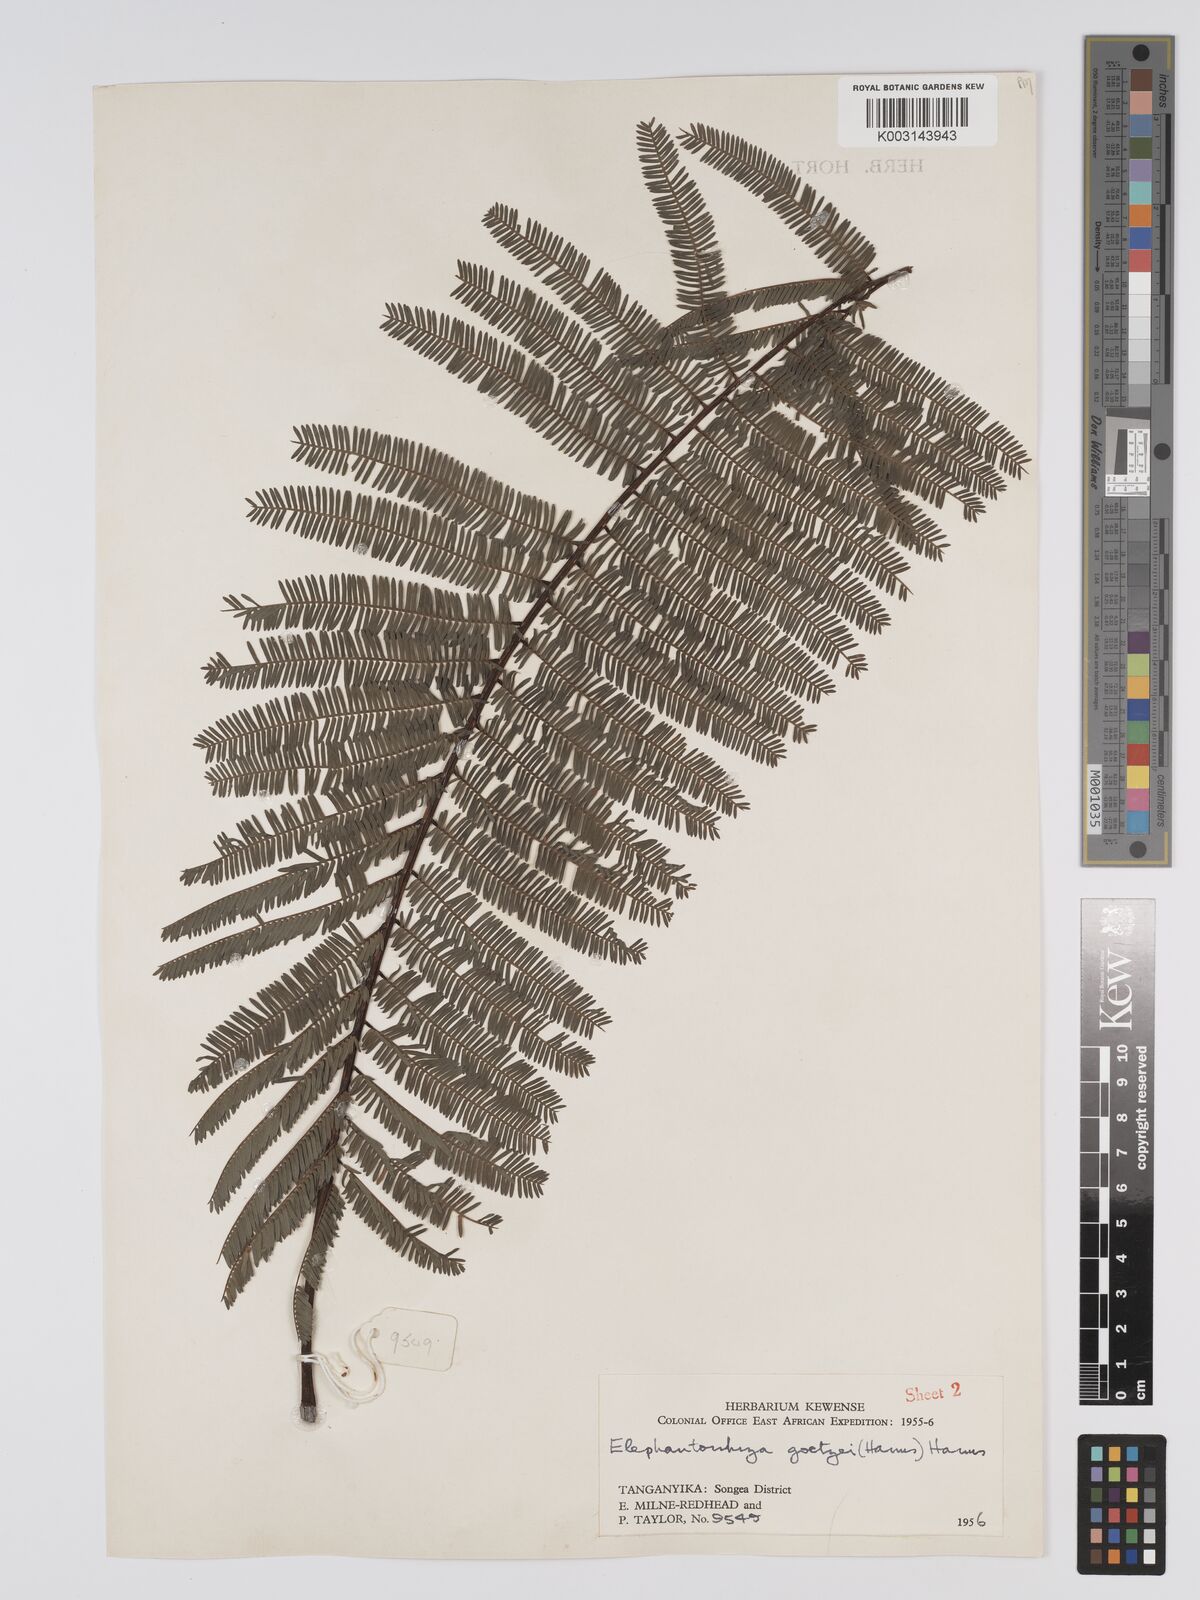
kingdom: Plantae
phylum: Tracheophyta
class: Magnoliopsida
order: Fabales
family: Fabaceae
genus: Elephantorrhiza
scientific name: Elephantorrhiza goetzei
